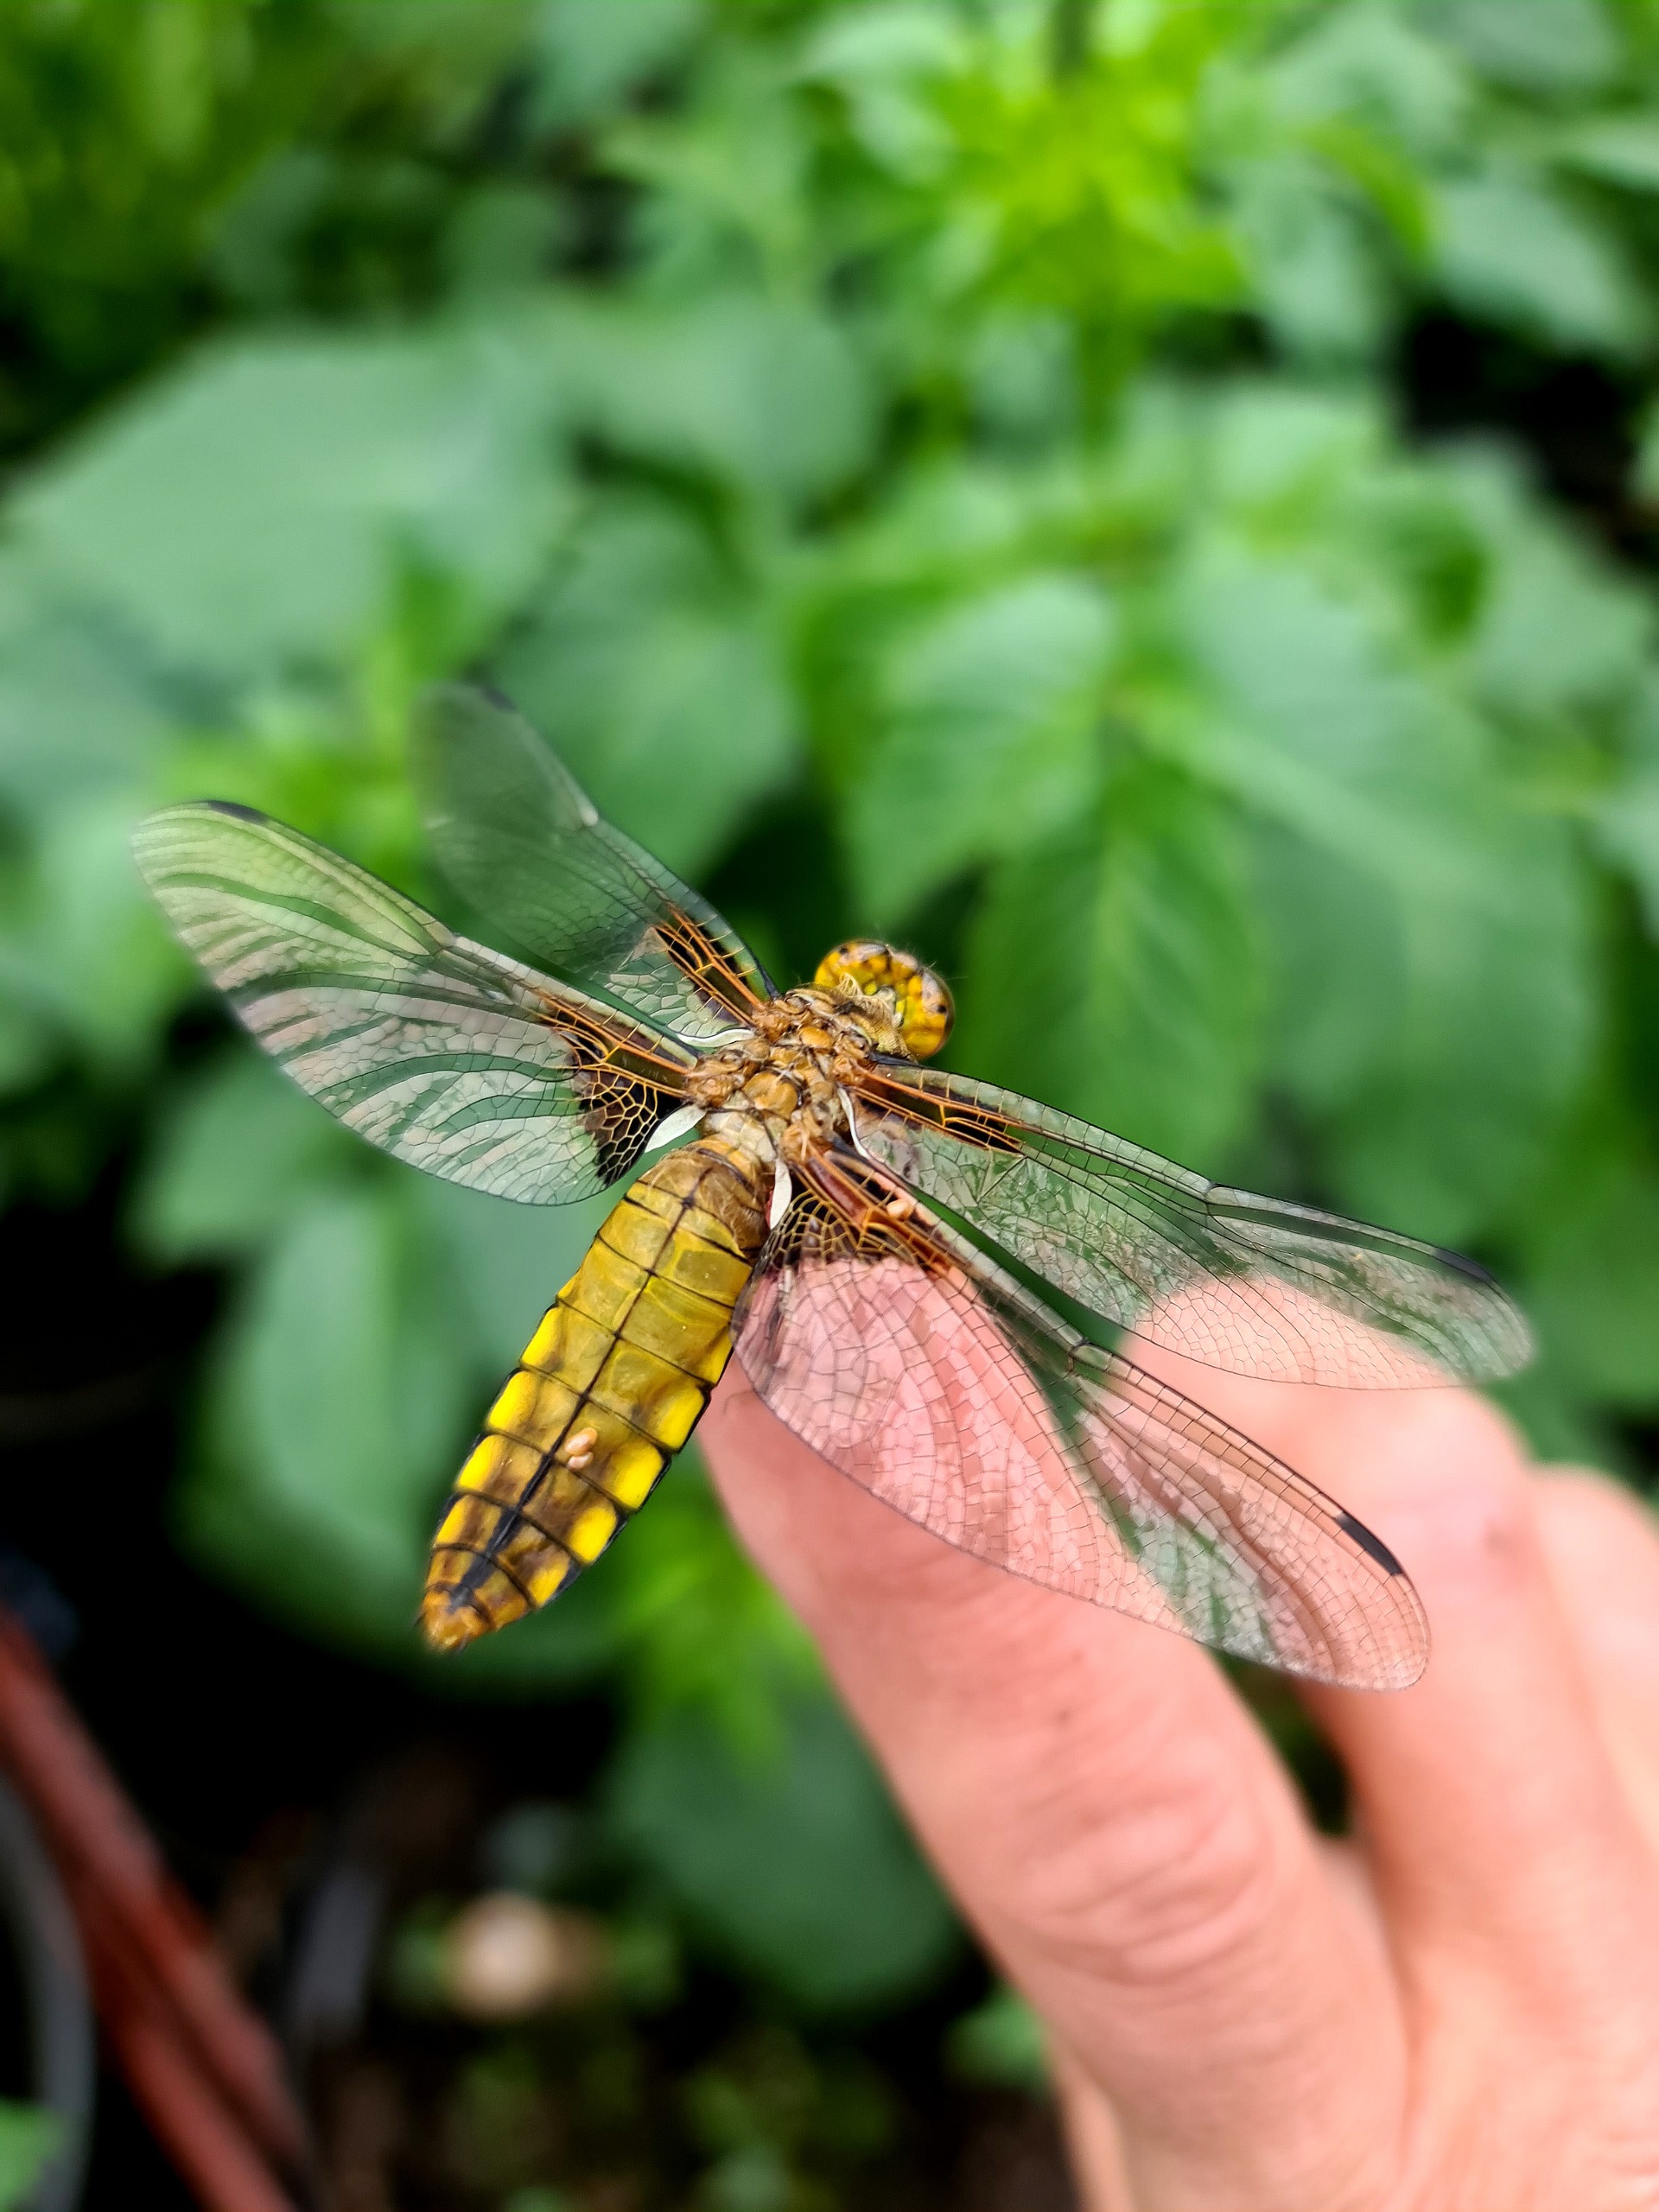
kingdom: Animalia
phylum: Arthropoda
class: Insecta
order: Odonata
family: Libellulidae
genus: Libellula
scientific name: Libellula depressa
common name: Blå libel
